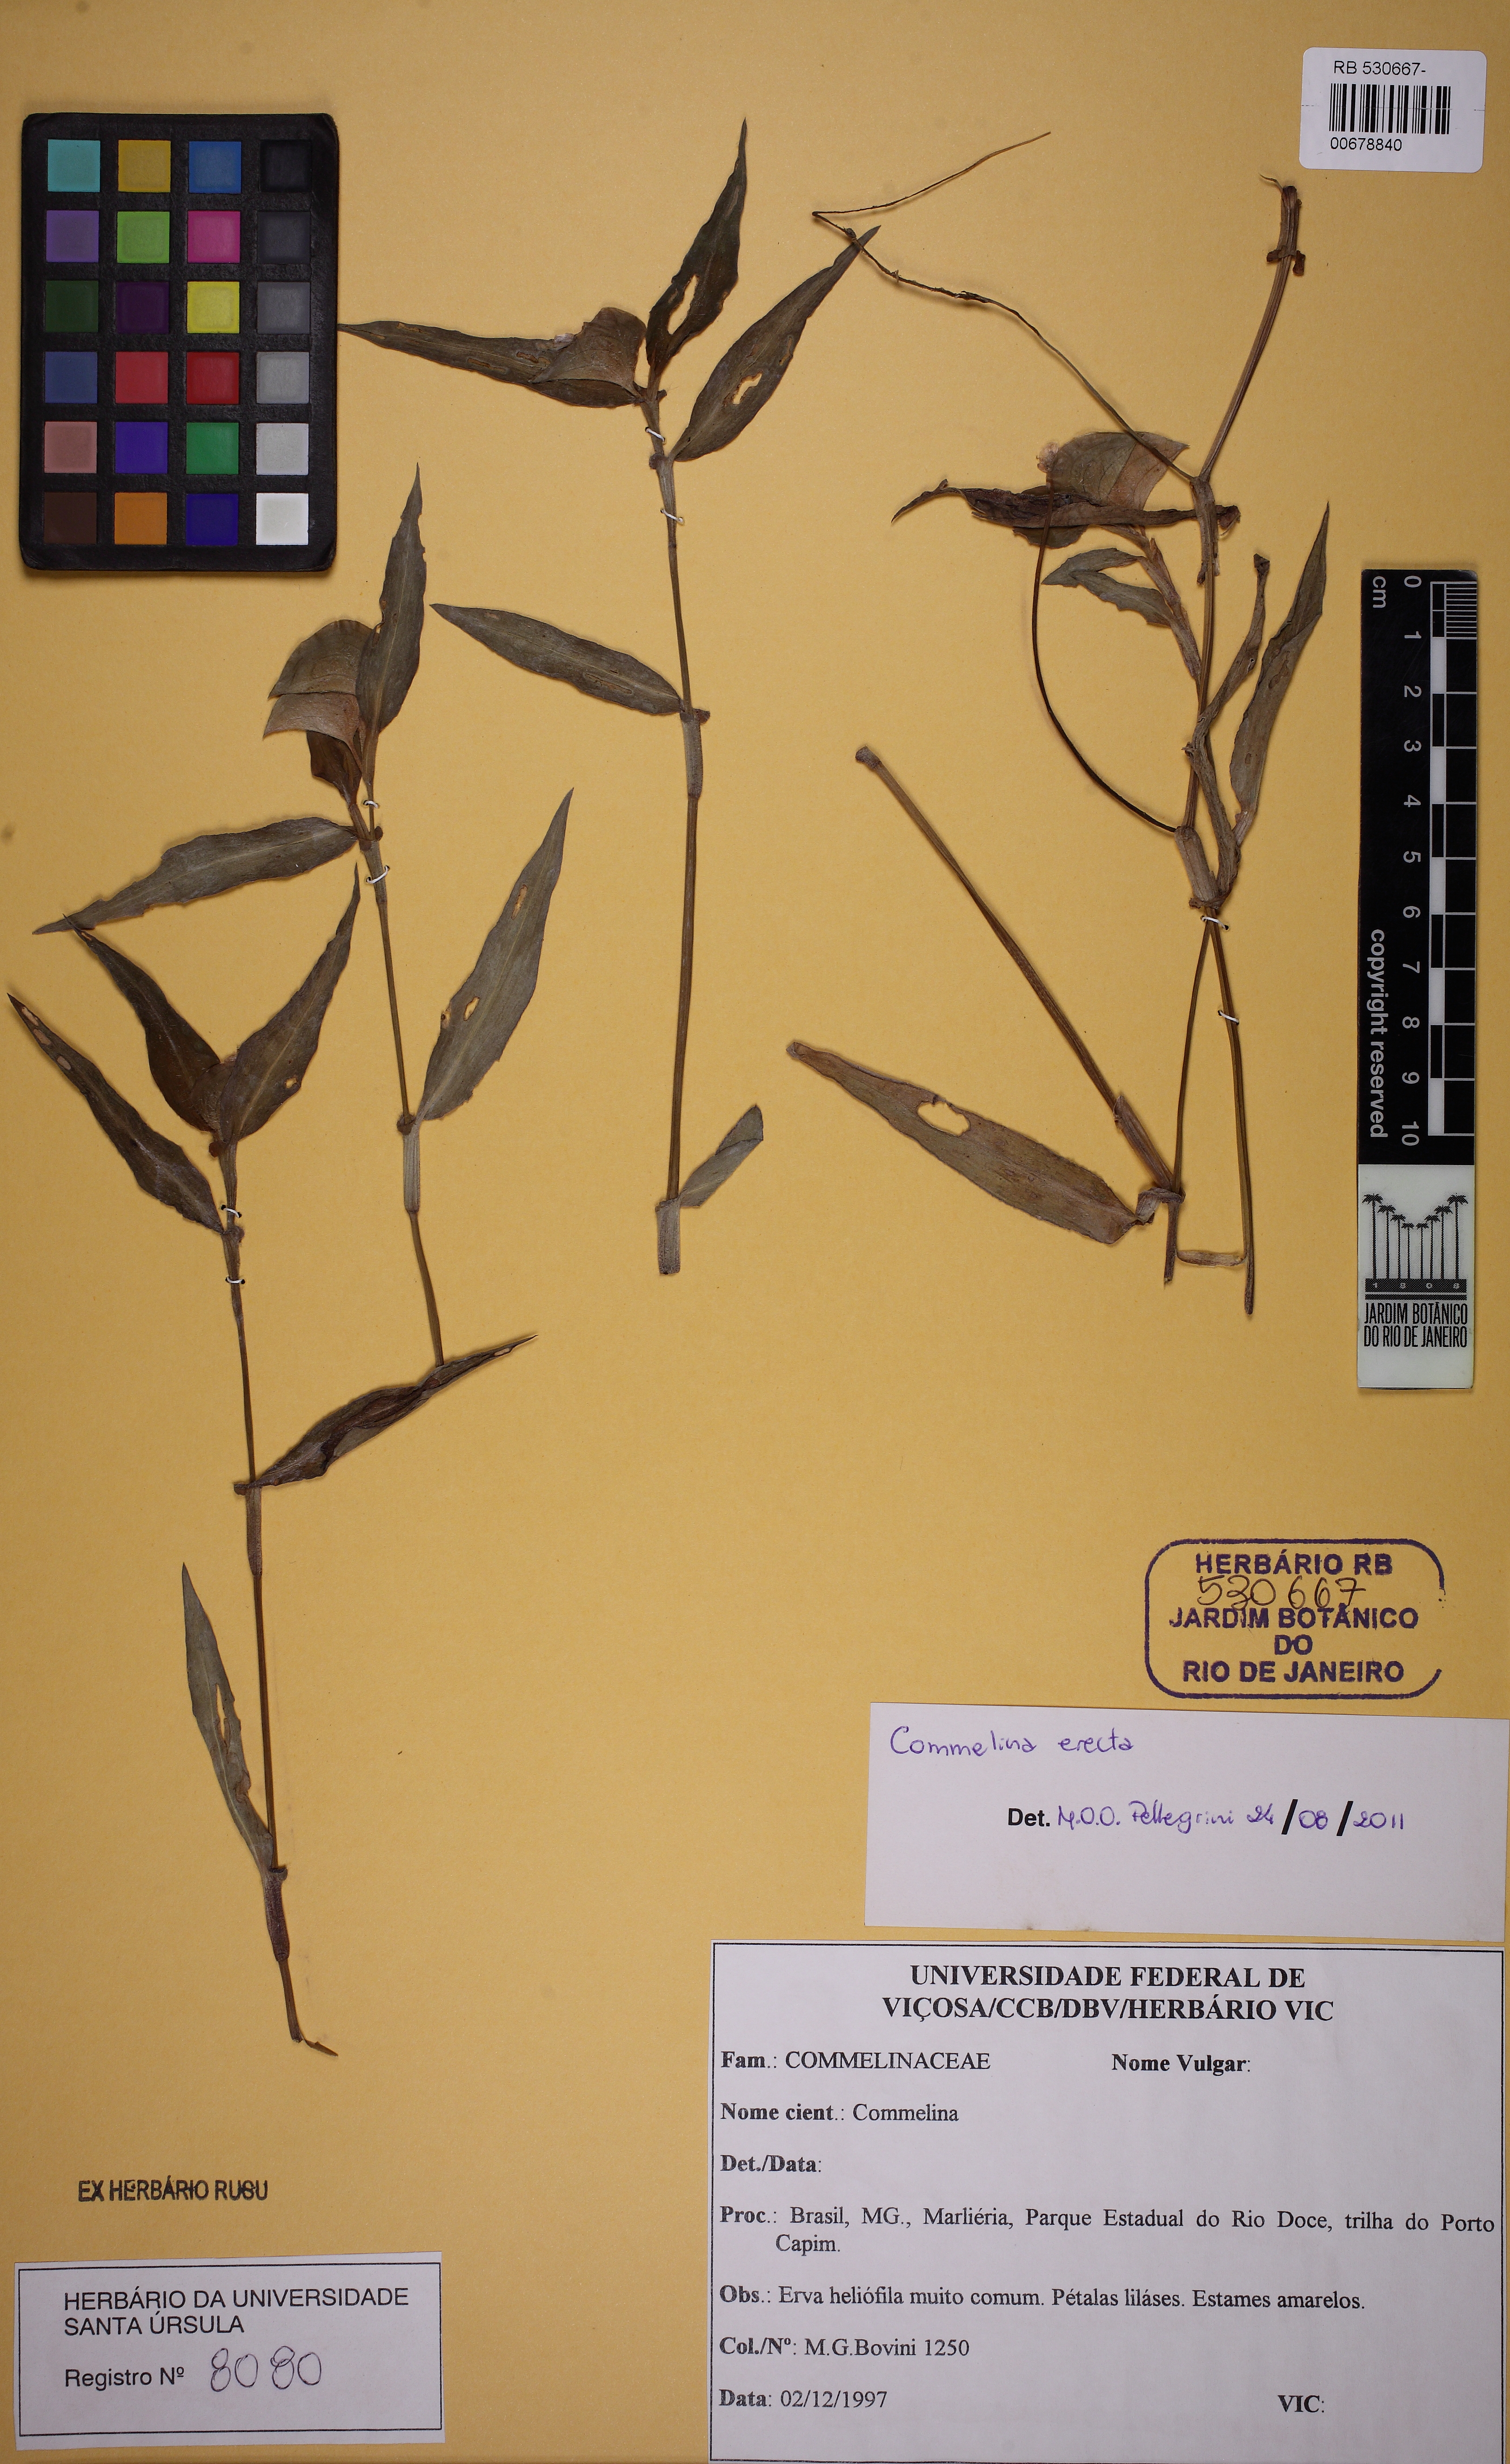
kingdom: Plantae
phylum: Tracheophyta
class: Liliopsida
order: Commelinales
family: Commelinaceae
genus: Commelina
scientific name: Commelina erecta
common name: Blousel blommetjie
